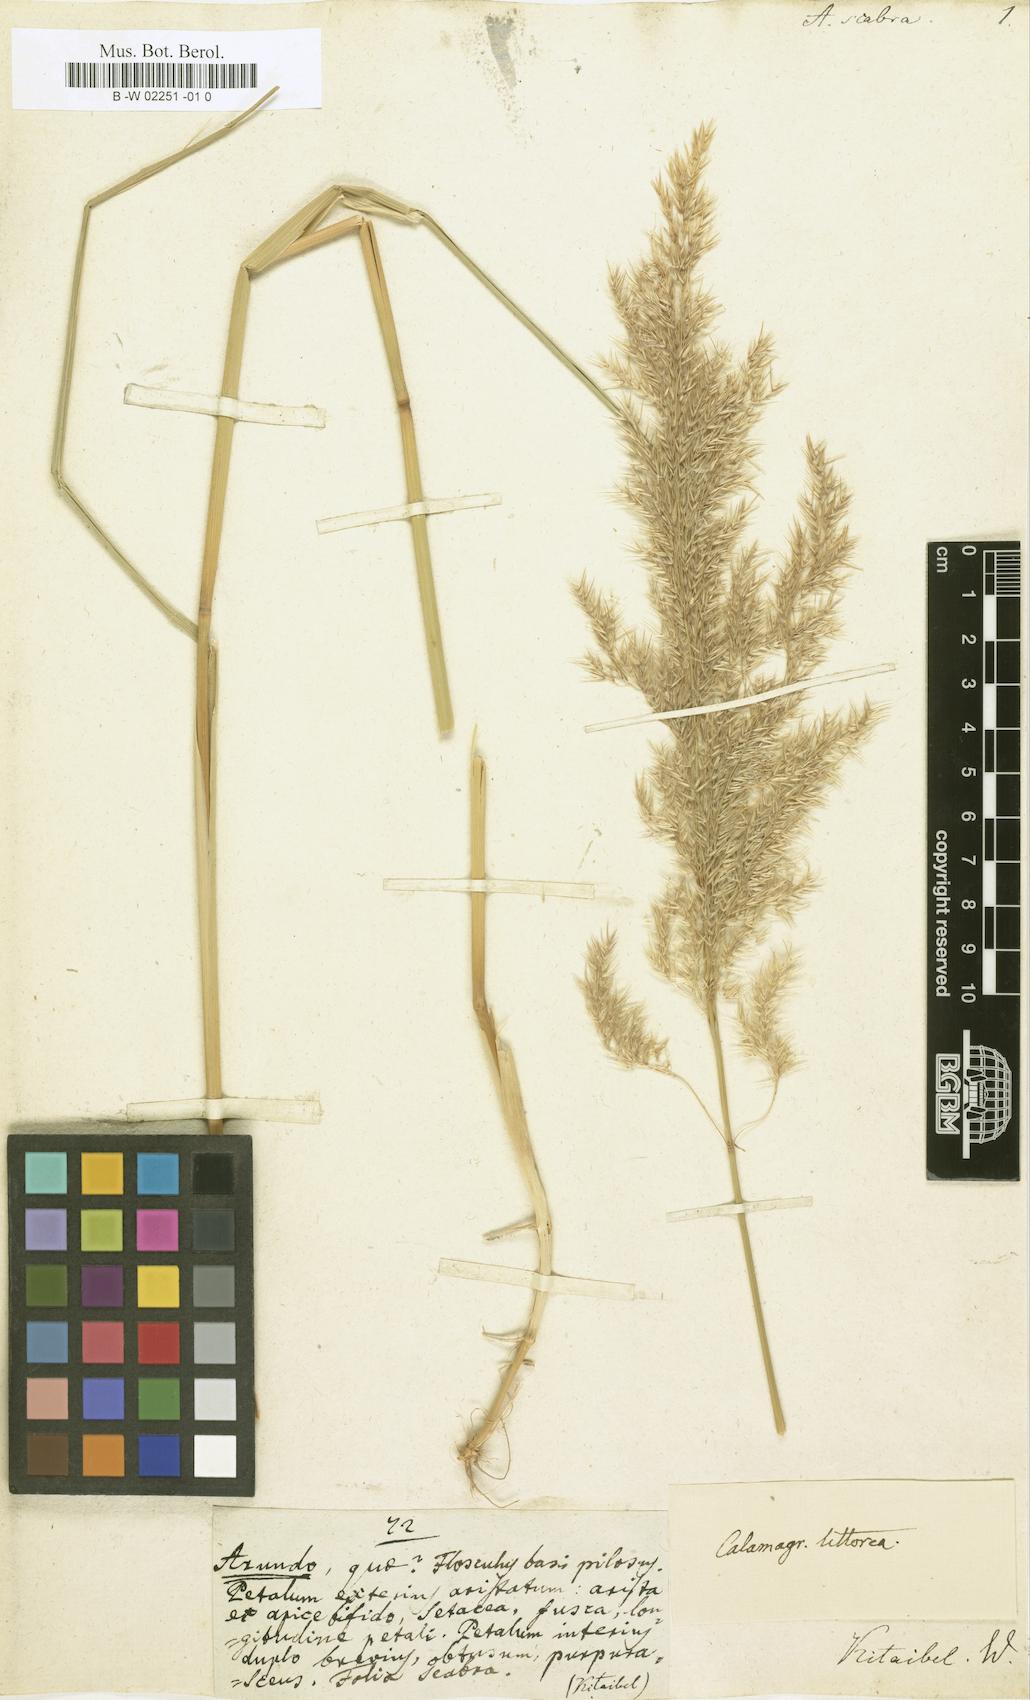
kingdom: Plantae
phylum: Tracheophyta
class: Liliopsida
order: Poales
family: Poaceae
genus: Arundo
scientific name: Arundo
